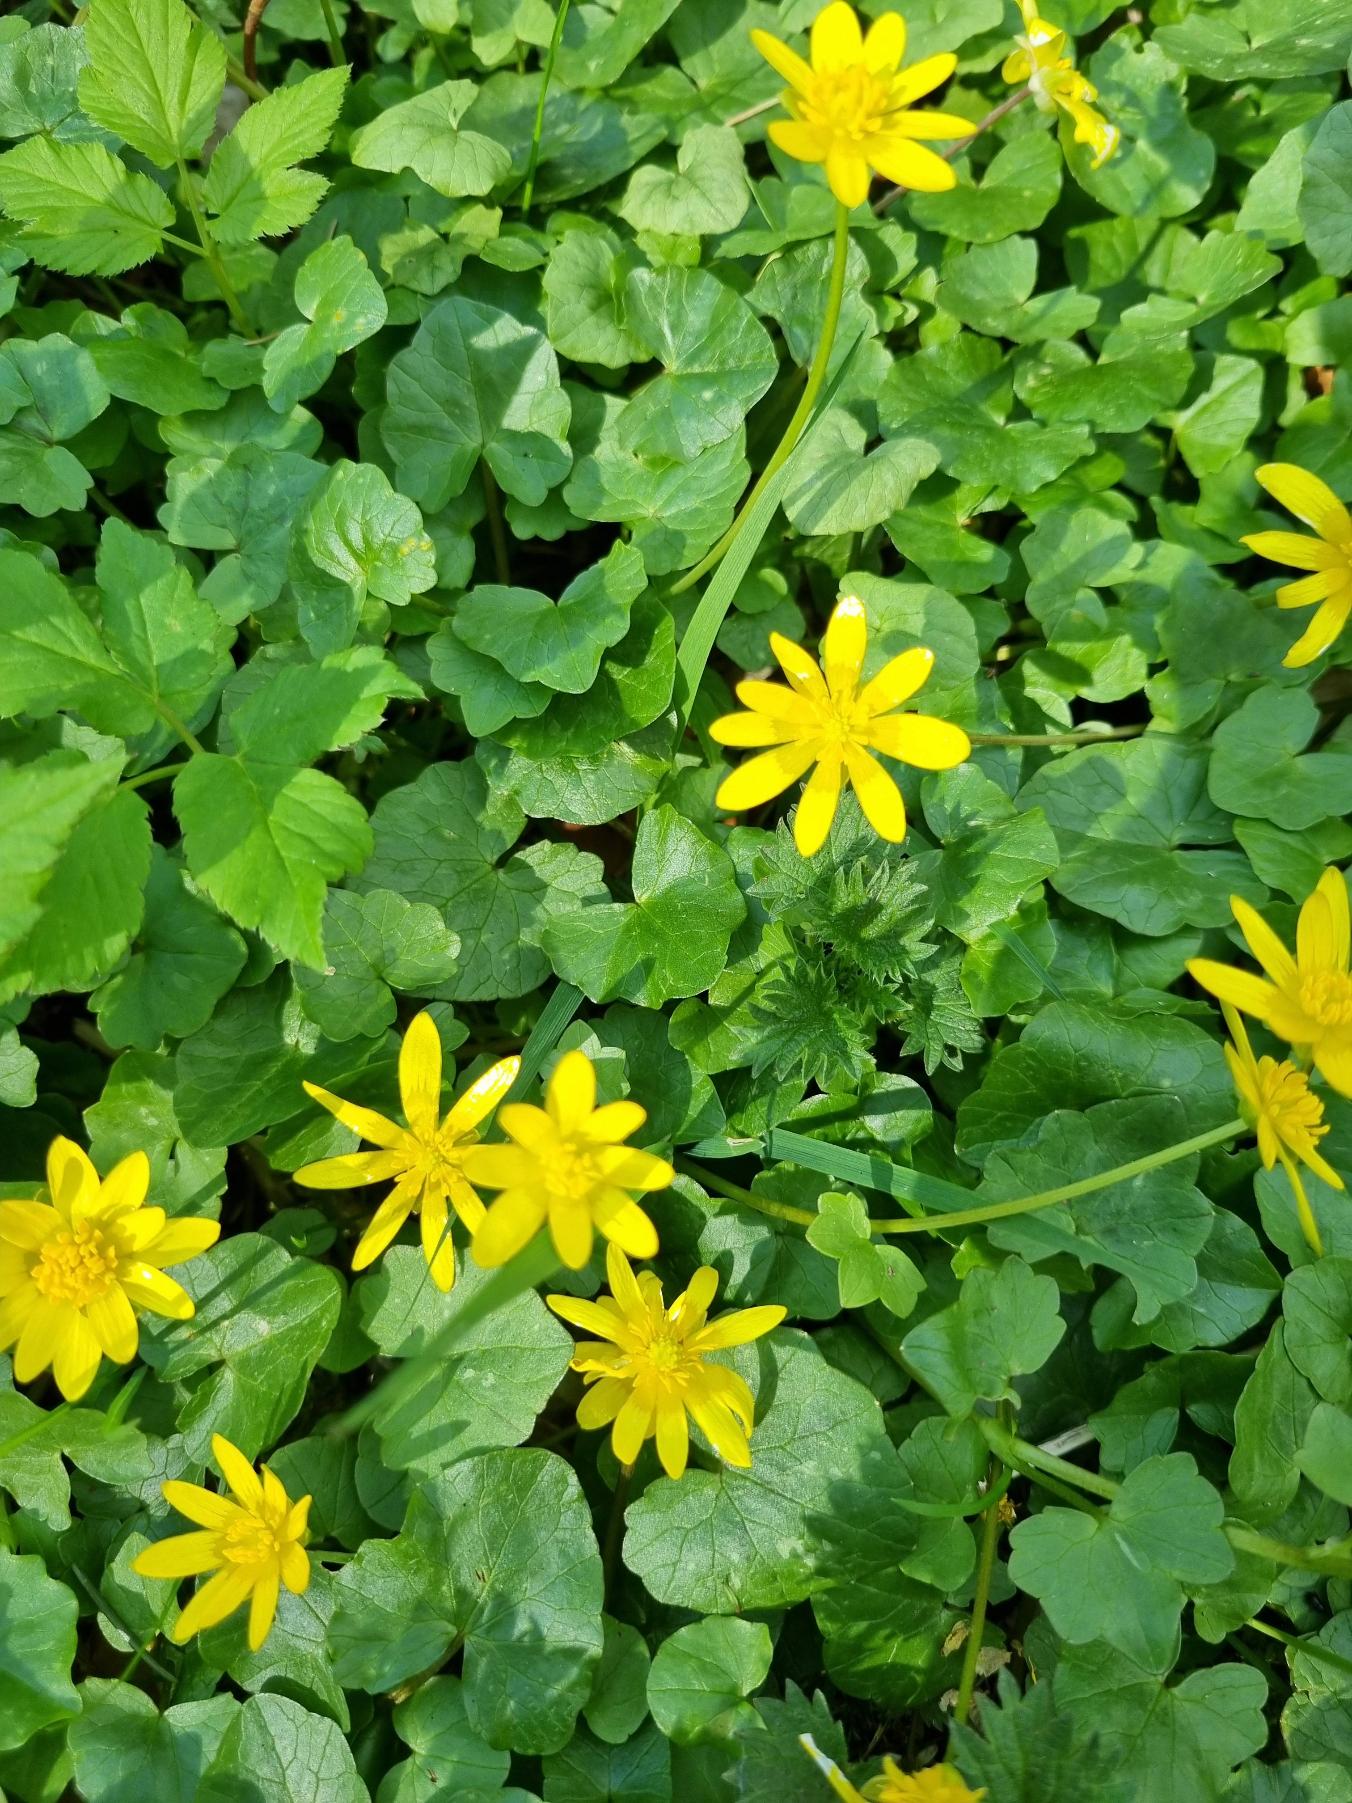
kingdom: Plantae
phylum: Tracheophyta
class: Magnoliopsida
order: Ranunculales
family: Ranunculaceae
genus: Ficaria
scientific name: Ficaria verna
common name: Vorterod
